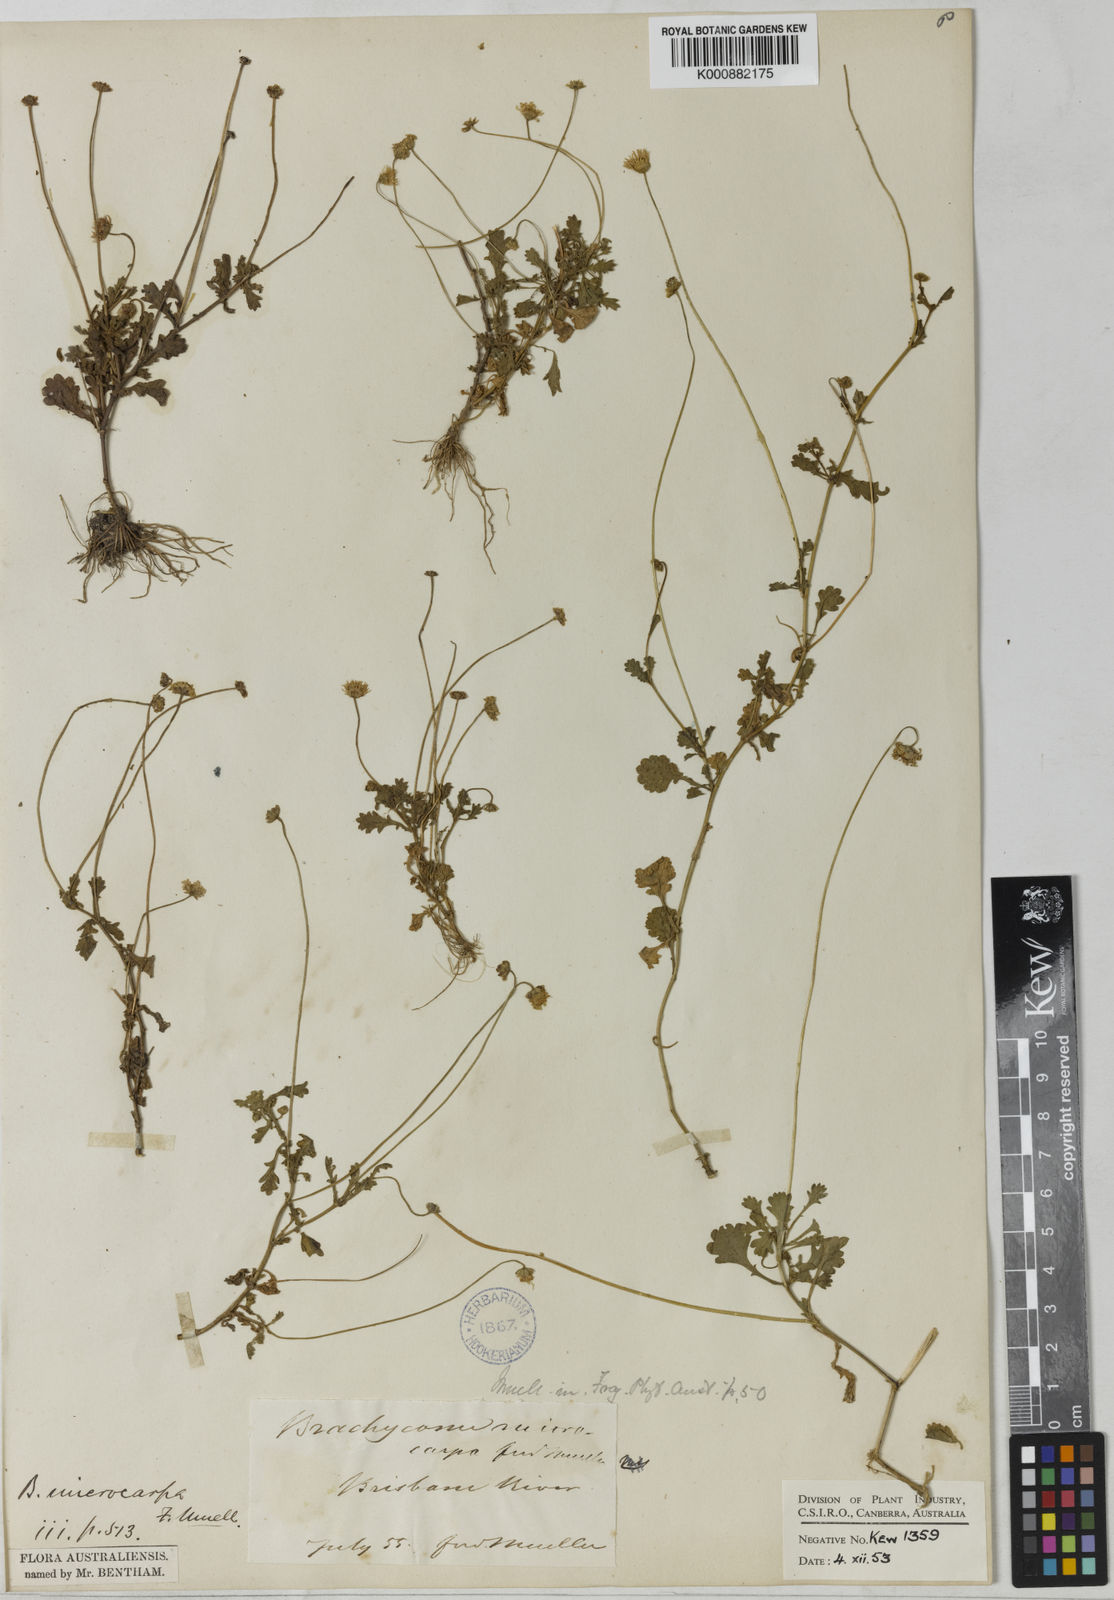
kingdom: Plantae
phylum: Tracheophyta
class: Magnoliopsida
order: Asterales
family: Asteraceae
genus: Brachyscome
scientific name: Brachyscome microcarpa
